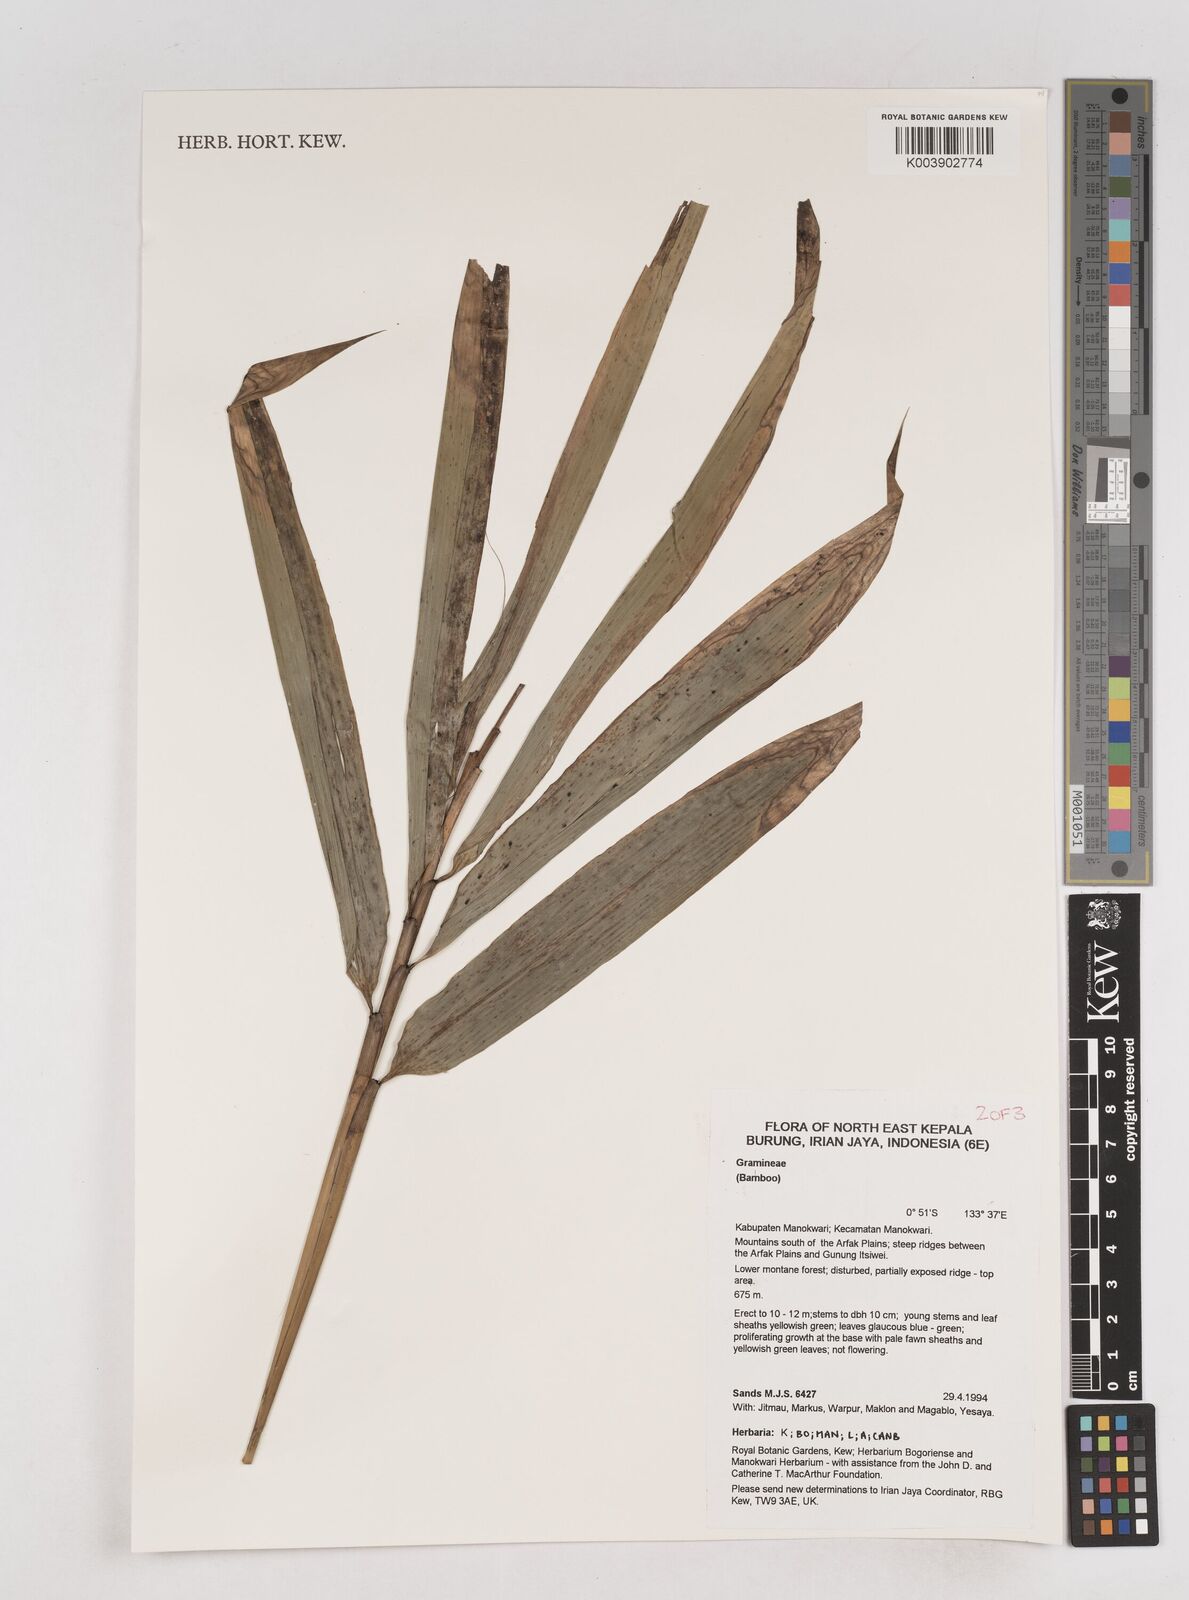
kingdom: Plantae
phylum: Tracheophyta
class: Liliopsida
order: Poales
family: Poaceae
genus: Schizostachyum
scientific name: Schizostachyum
